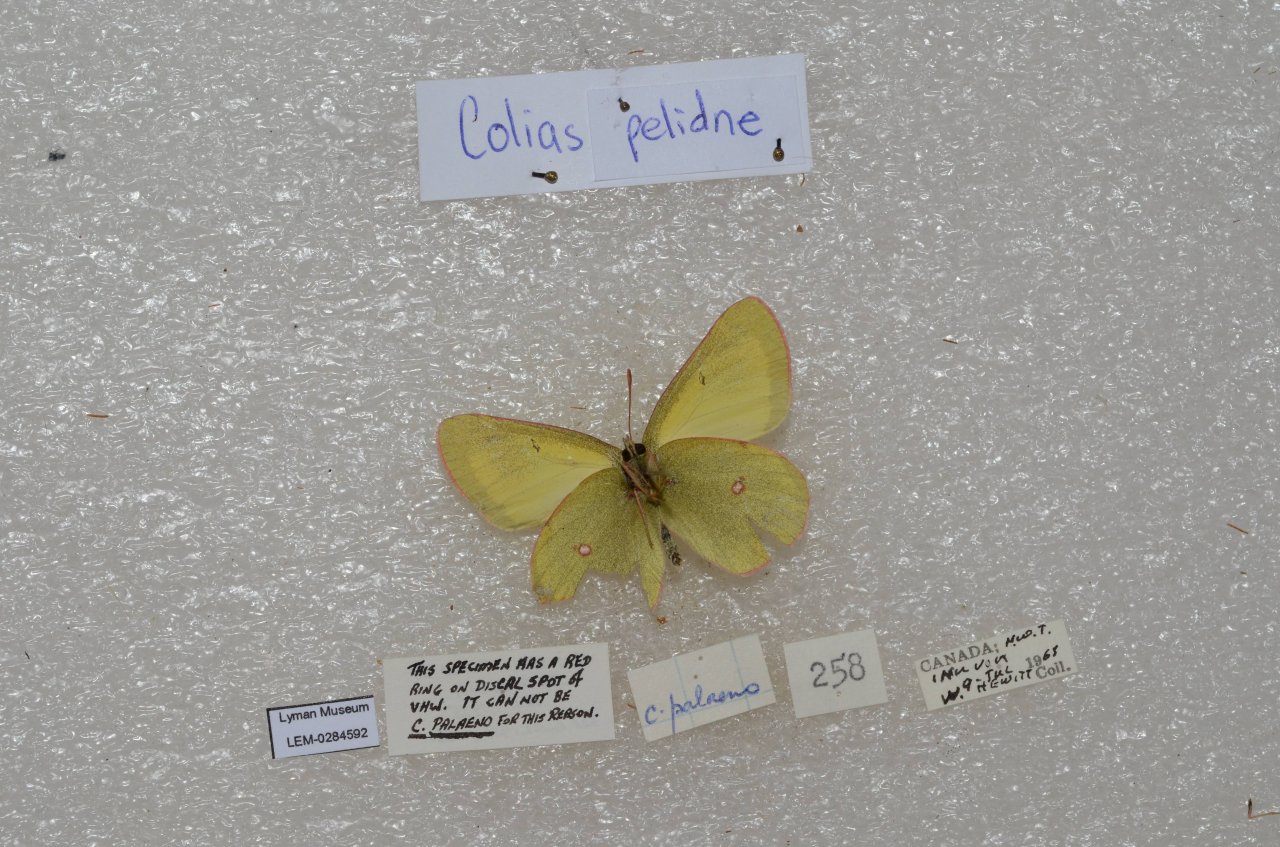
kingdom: Animalia
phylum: Arthropoda
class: Insecta
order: Lepidoptera
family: Pieridae
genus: Colias
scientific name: Colias pelidne
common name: Pelidne Sulphur
